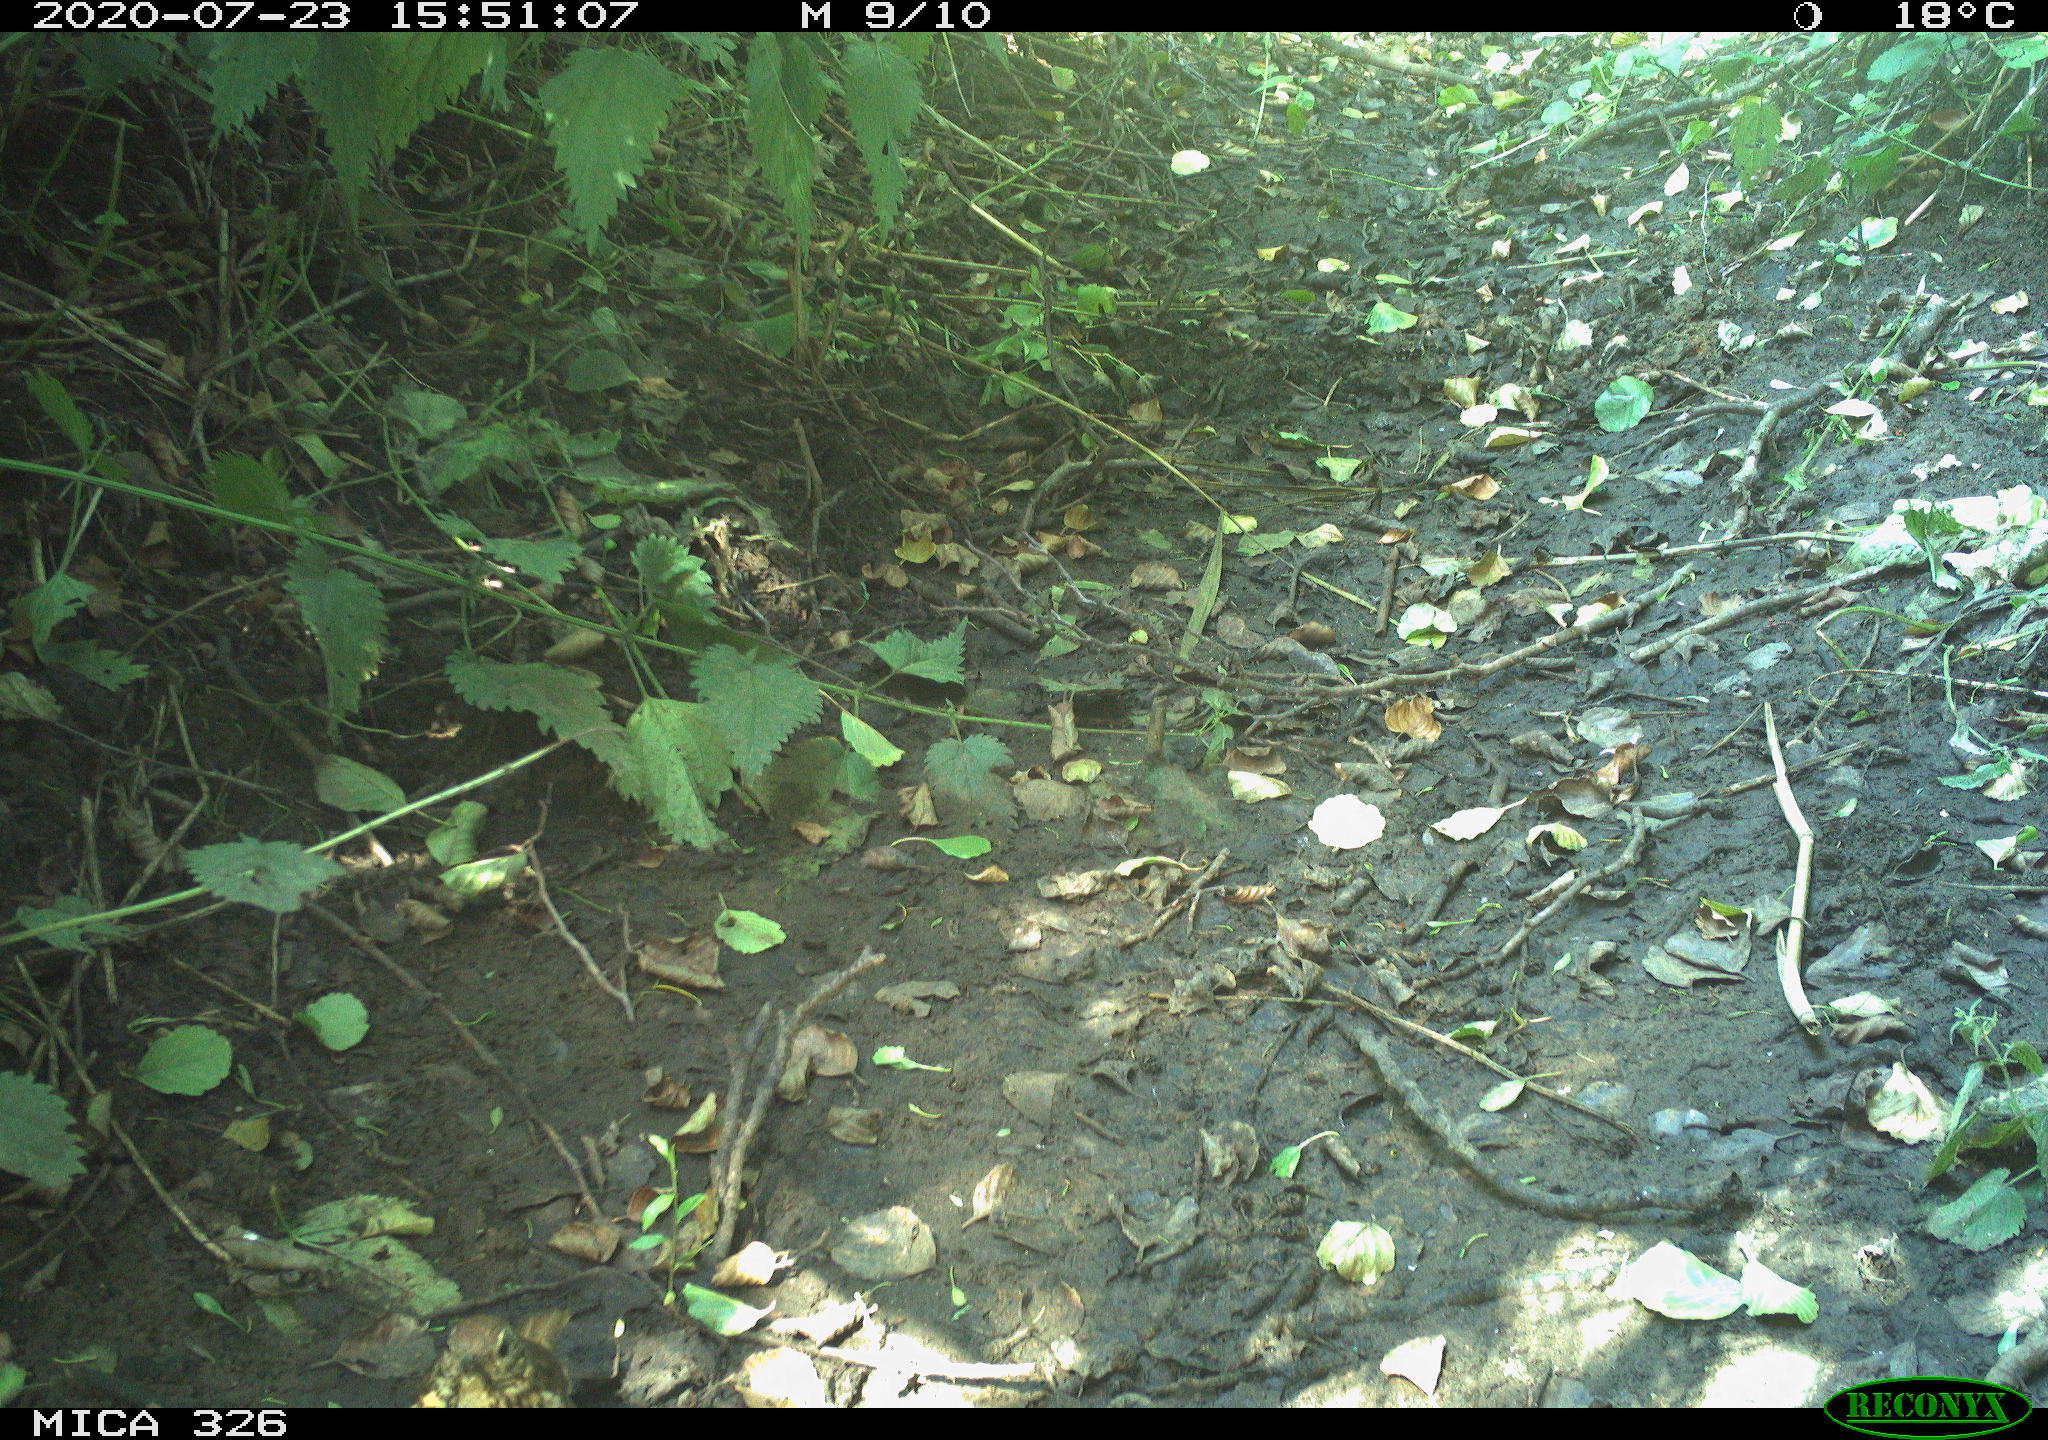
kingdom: Animalia
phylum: Chordata
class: Aves
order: Passeriformes
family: Turdidae
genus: Turdus
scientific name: Turdus philomelos
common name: Song thrush
